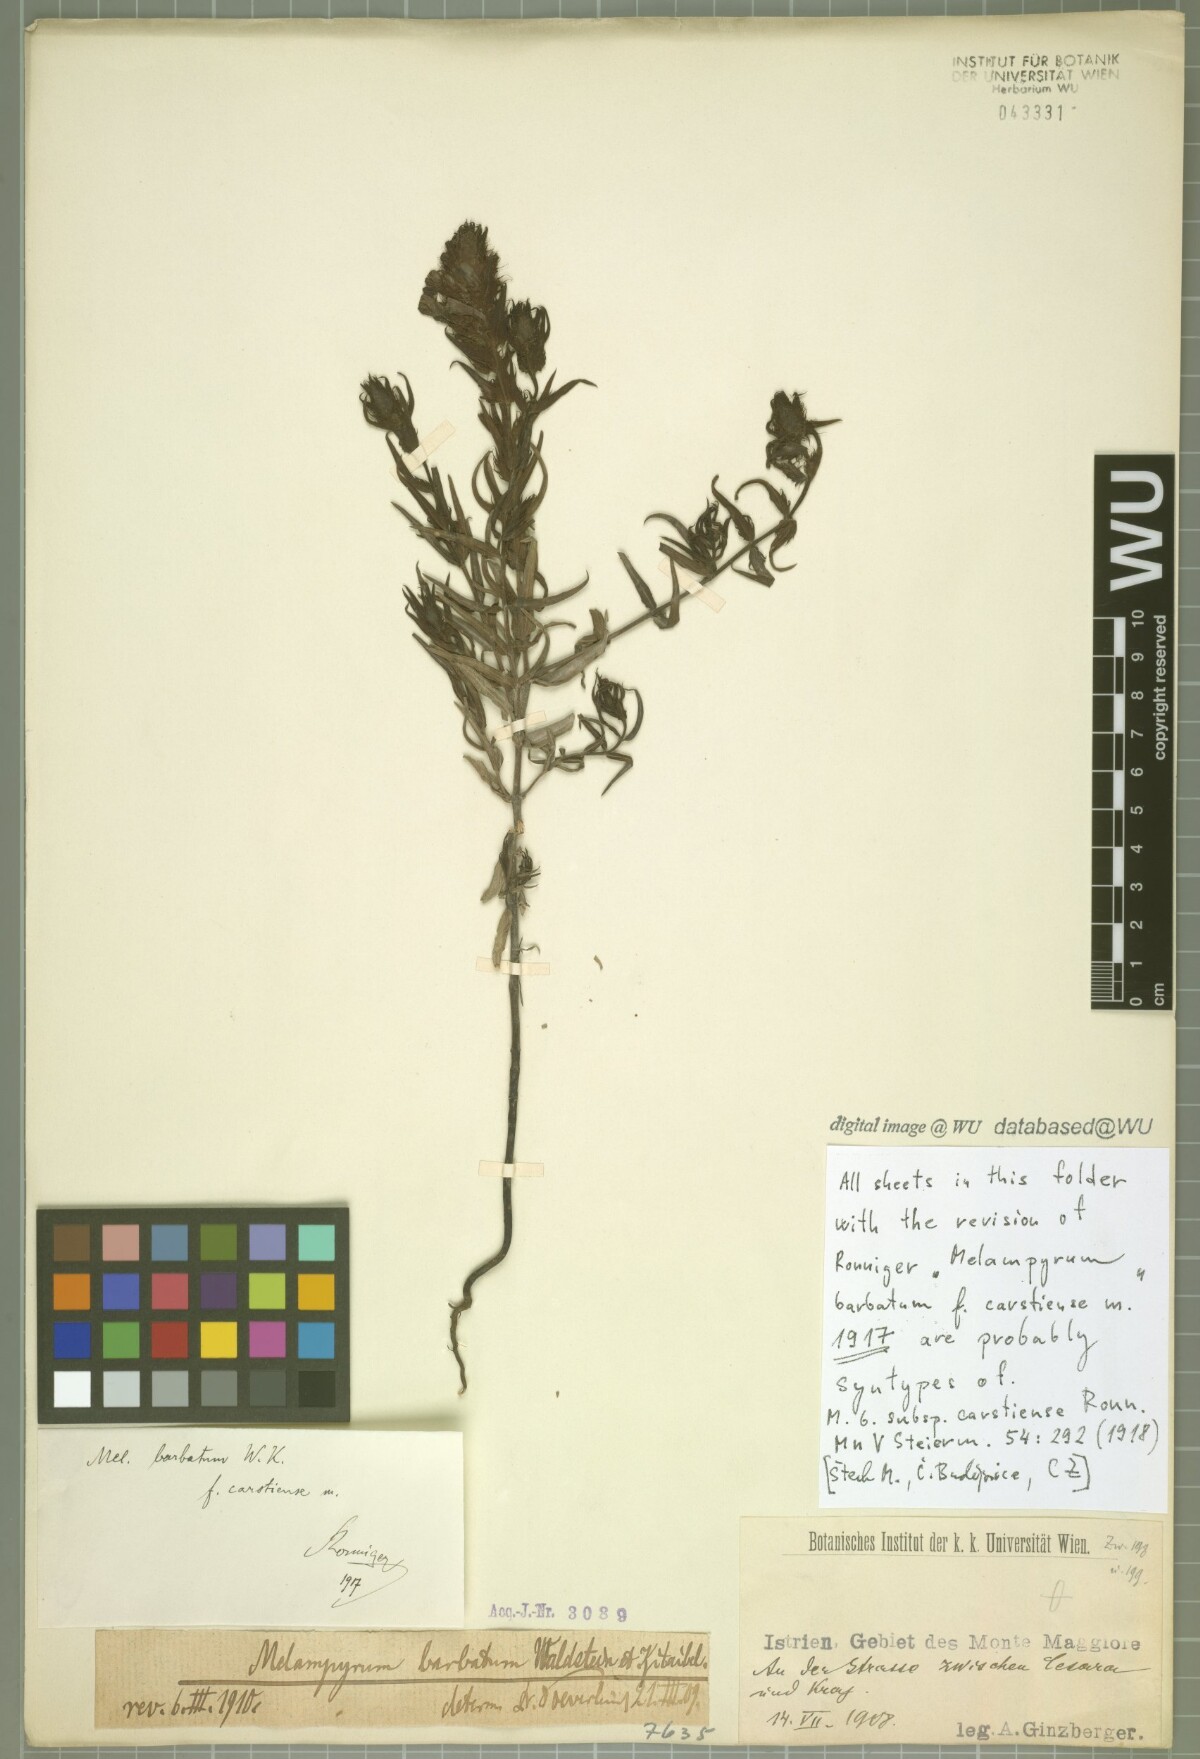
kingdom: Plantae
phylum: Tracheophyta
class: Magnoliopsida
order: Lamiales
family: Orobanchaceae
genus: Melampyrum
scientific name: Melampyrum barbatum
